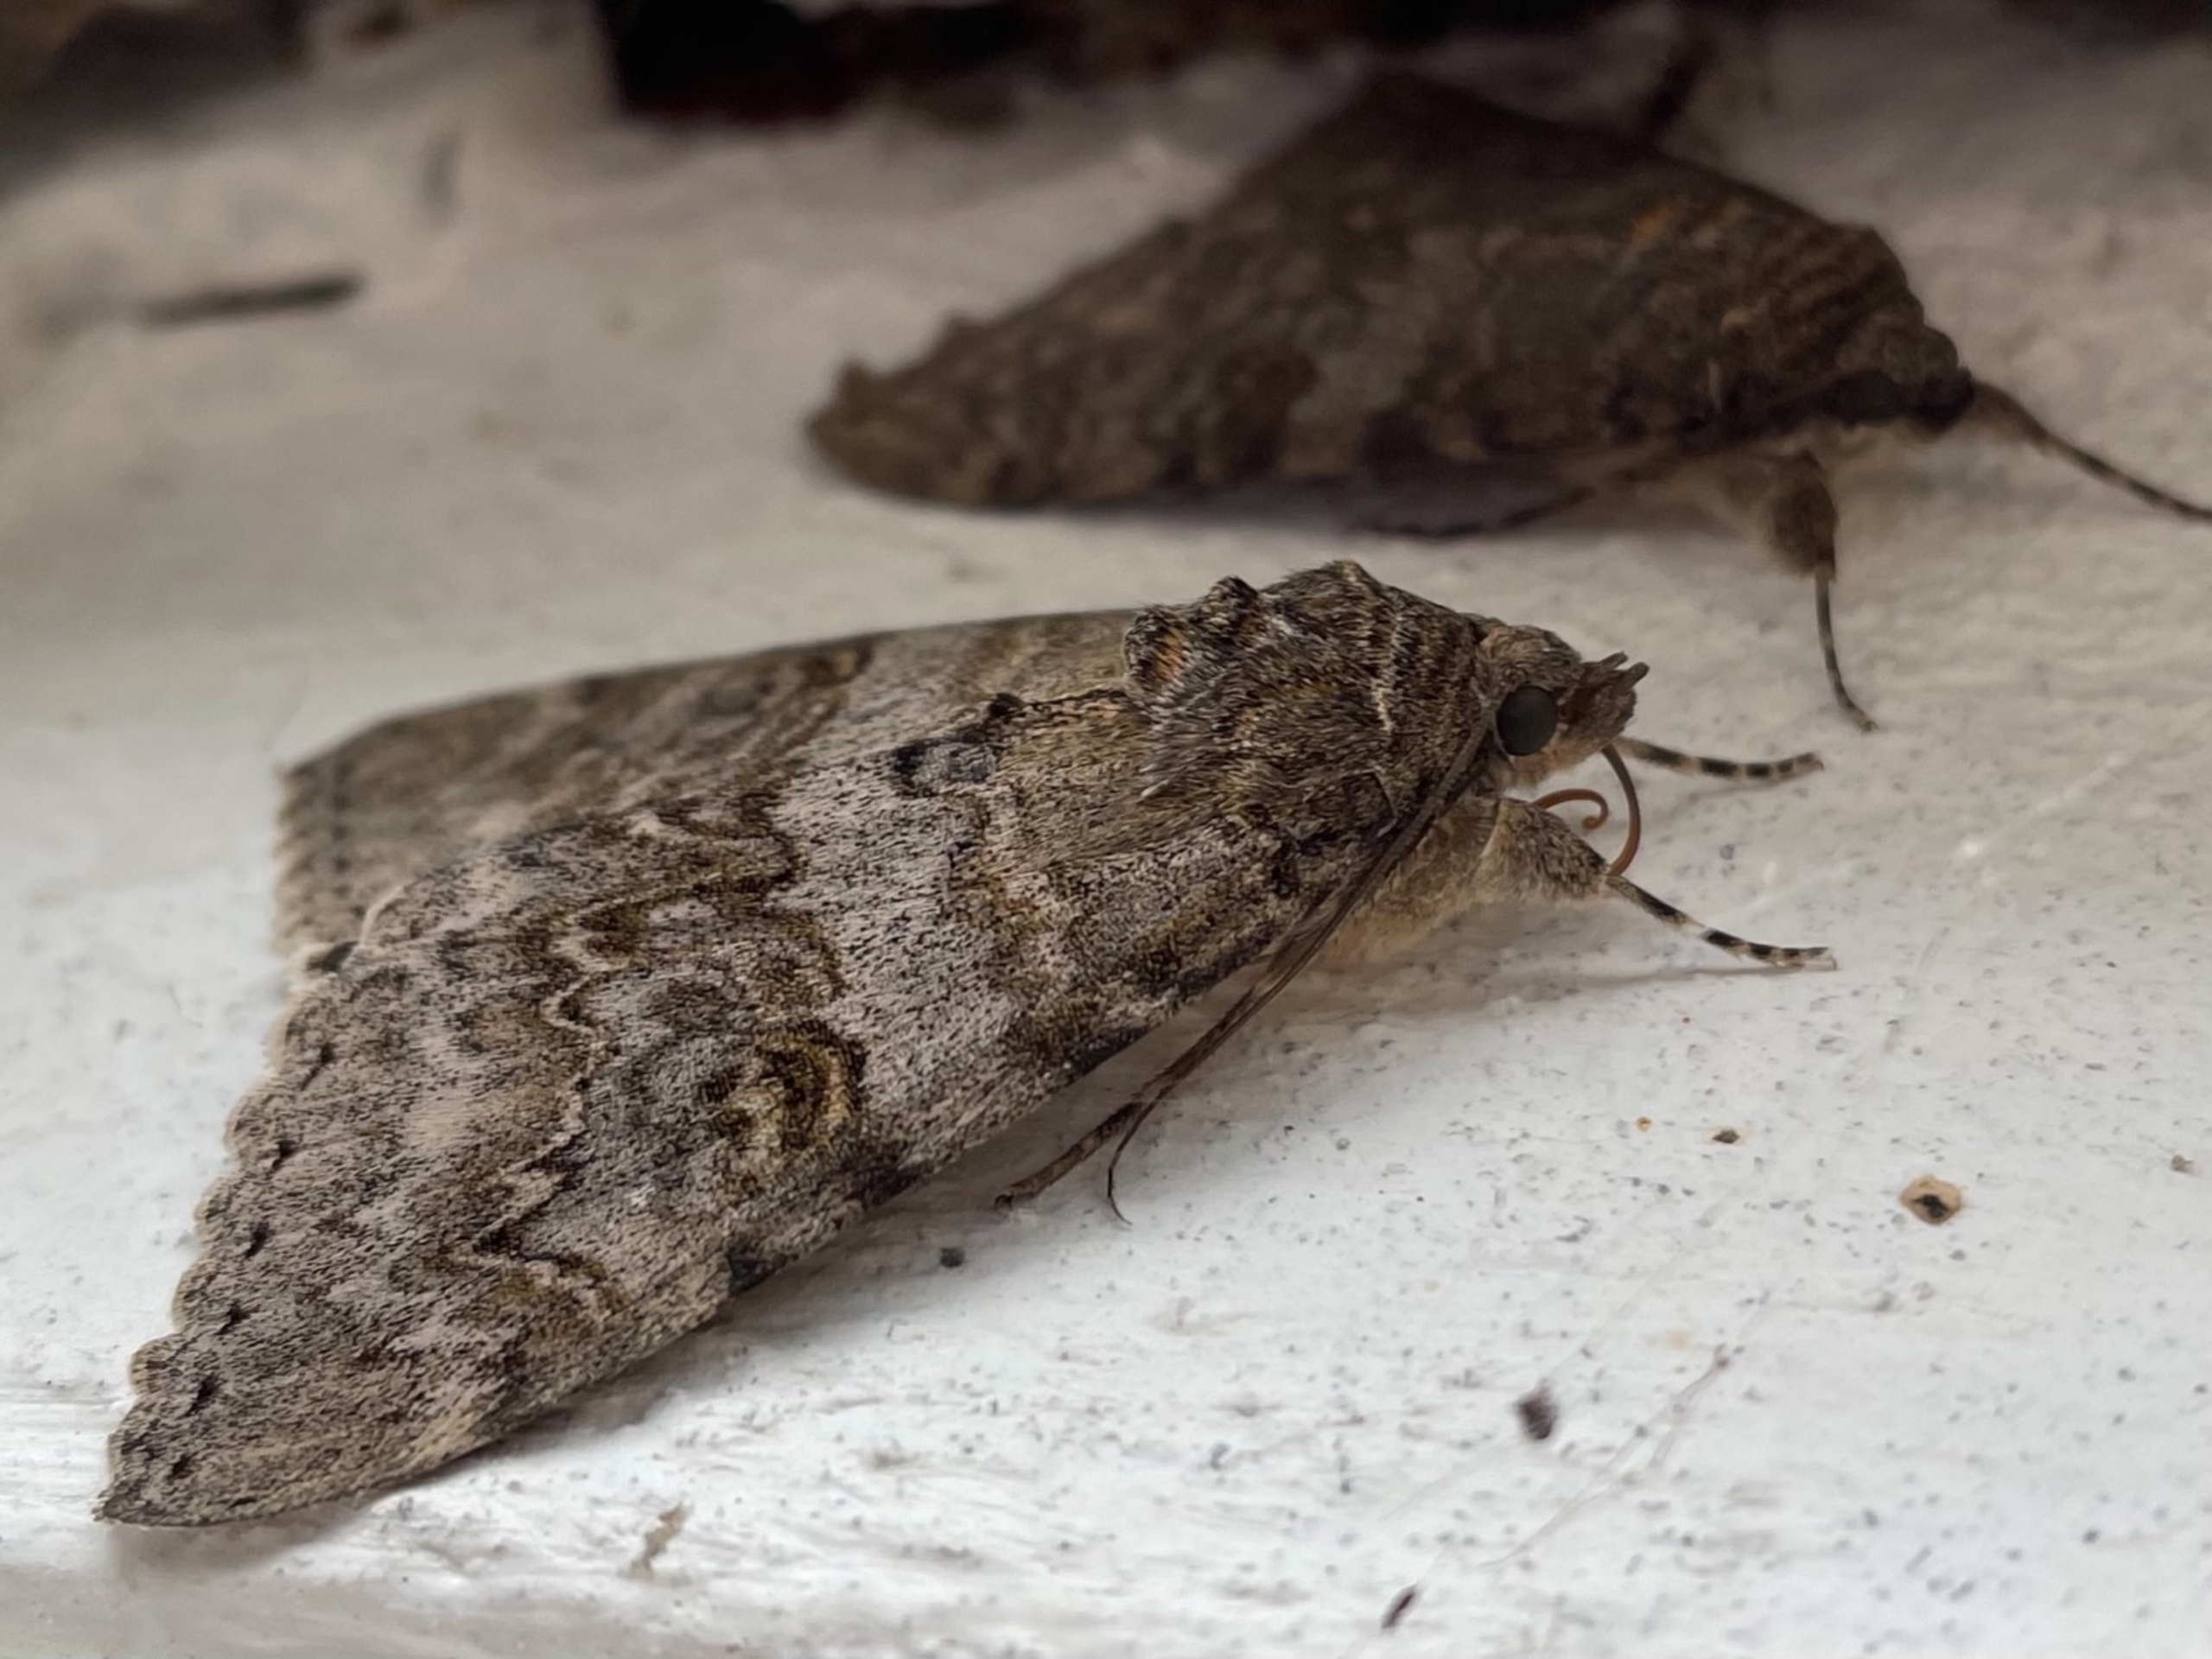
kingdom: Animalia
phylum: Arthropoda
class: Insecta
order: Lepidoptera
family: Erebidae
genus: Catocala
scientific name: Catocala nupta
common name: Rødt ordensbånd
